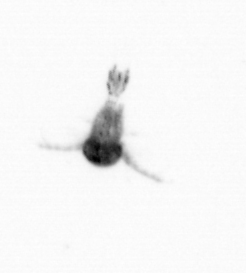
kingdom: Animalia
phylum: Arthropoda
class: Copepoda
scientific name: Copepoda
